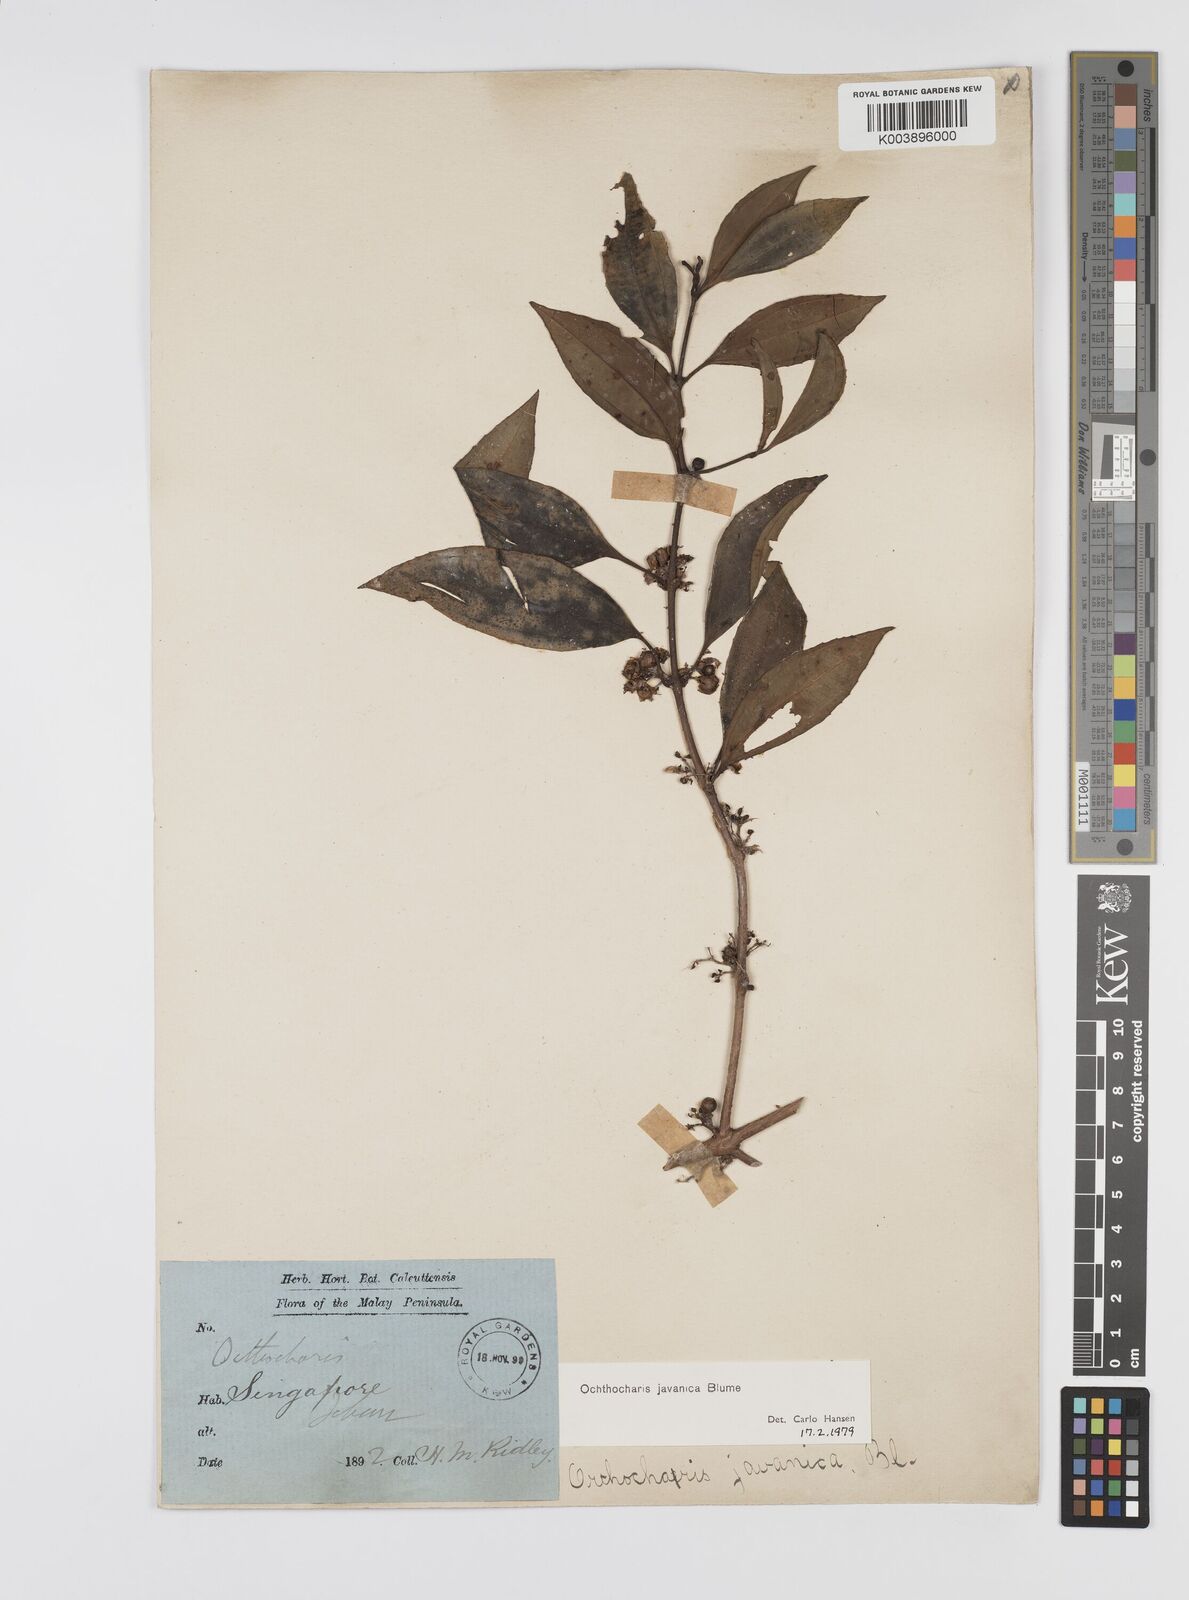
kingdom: Plantae
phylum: Tracheophyta
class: Magnoliopsida
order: Myrtales
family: Melastomataceae
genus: Ochthocharis
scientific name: Ochthocharis javanica
